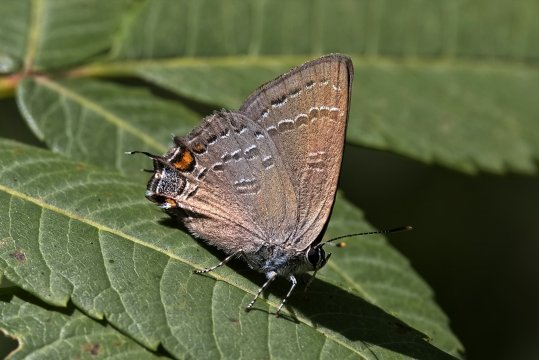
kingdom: Animalia
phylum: Arthropoda
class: Insecta
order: Lepidoptera
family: Lycaenidae
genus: Satyrium
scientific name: Satyrium calanus
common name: Banded Hairstreak
